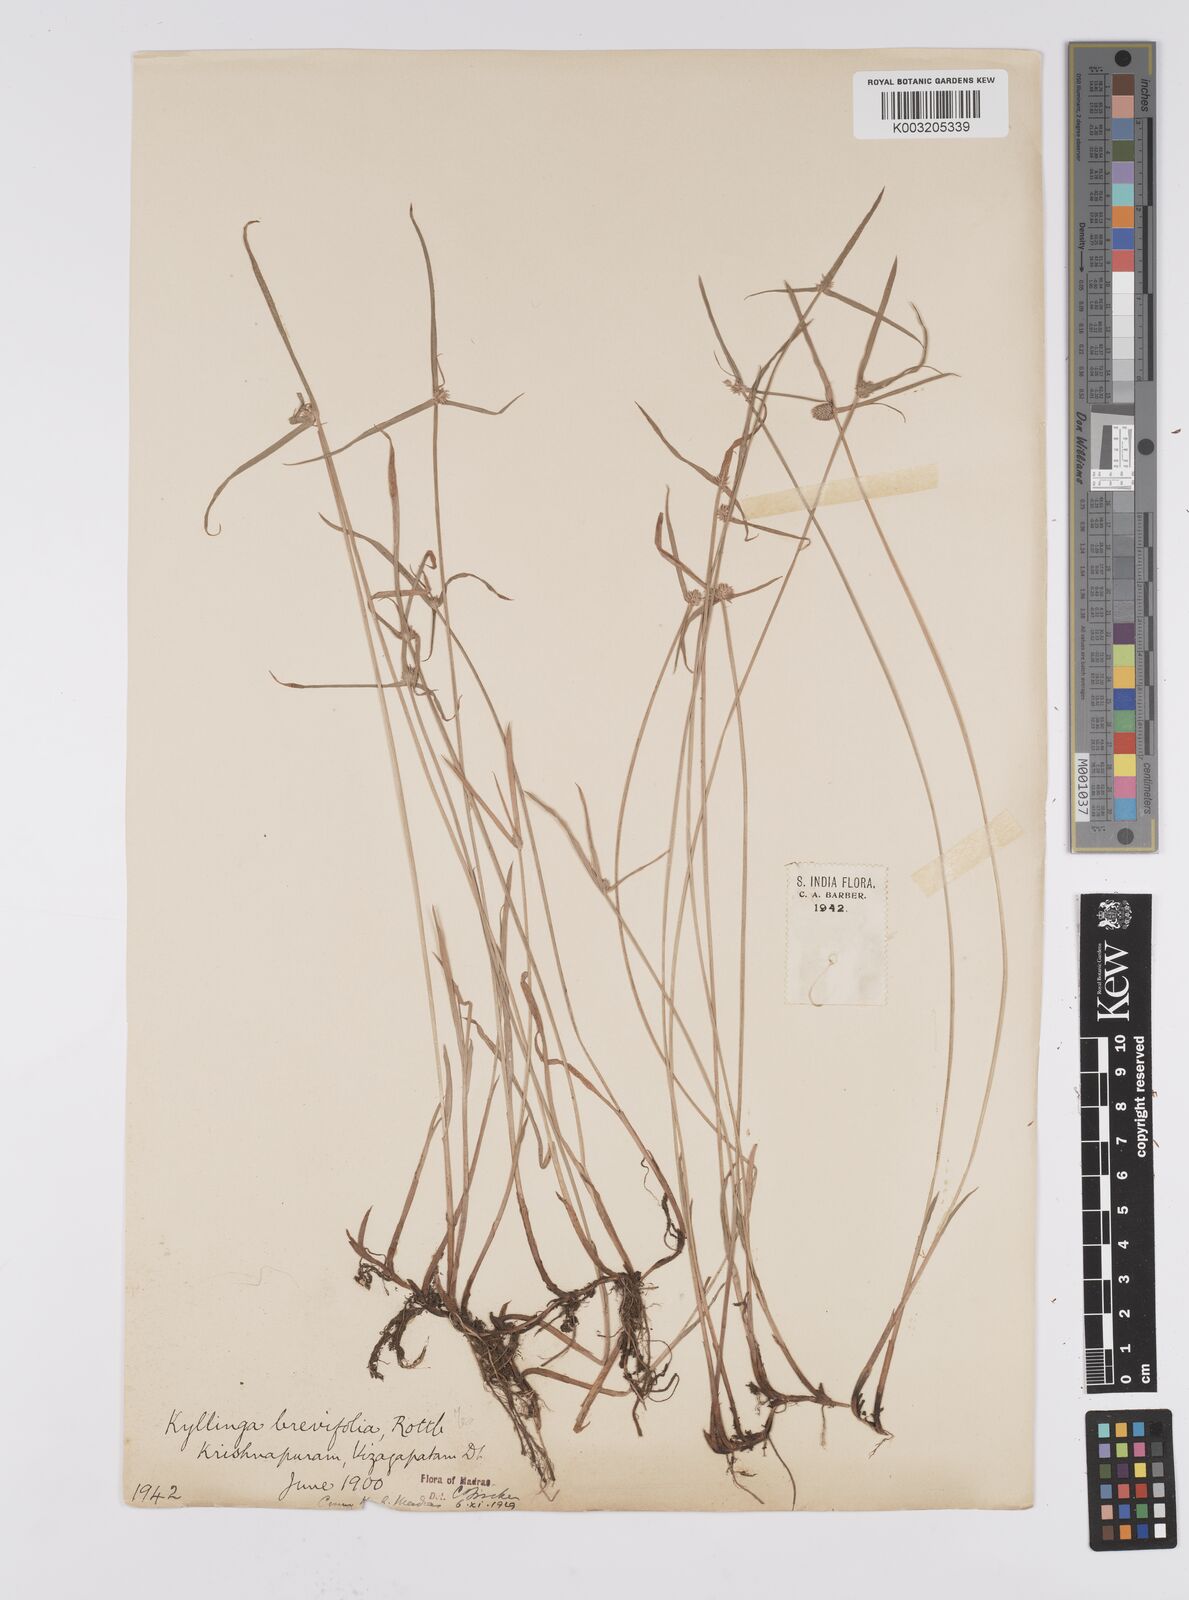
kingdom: Plantae
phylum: Tracheophyta
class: Liliopsida
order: Poales
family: Cyperaceae
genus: Cyperus
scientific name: Cyperus brevifolius
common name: Globe kyllinga
